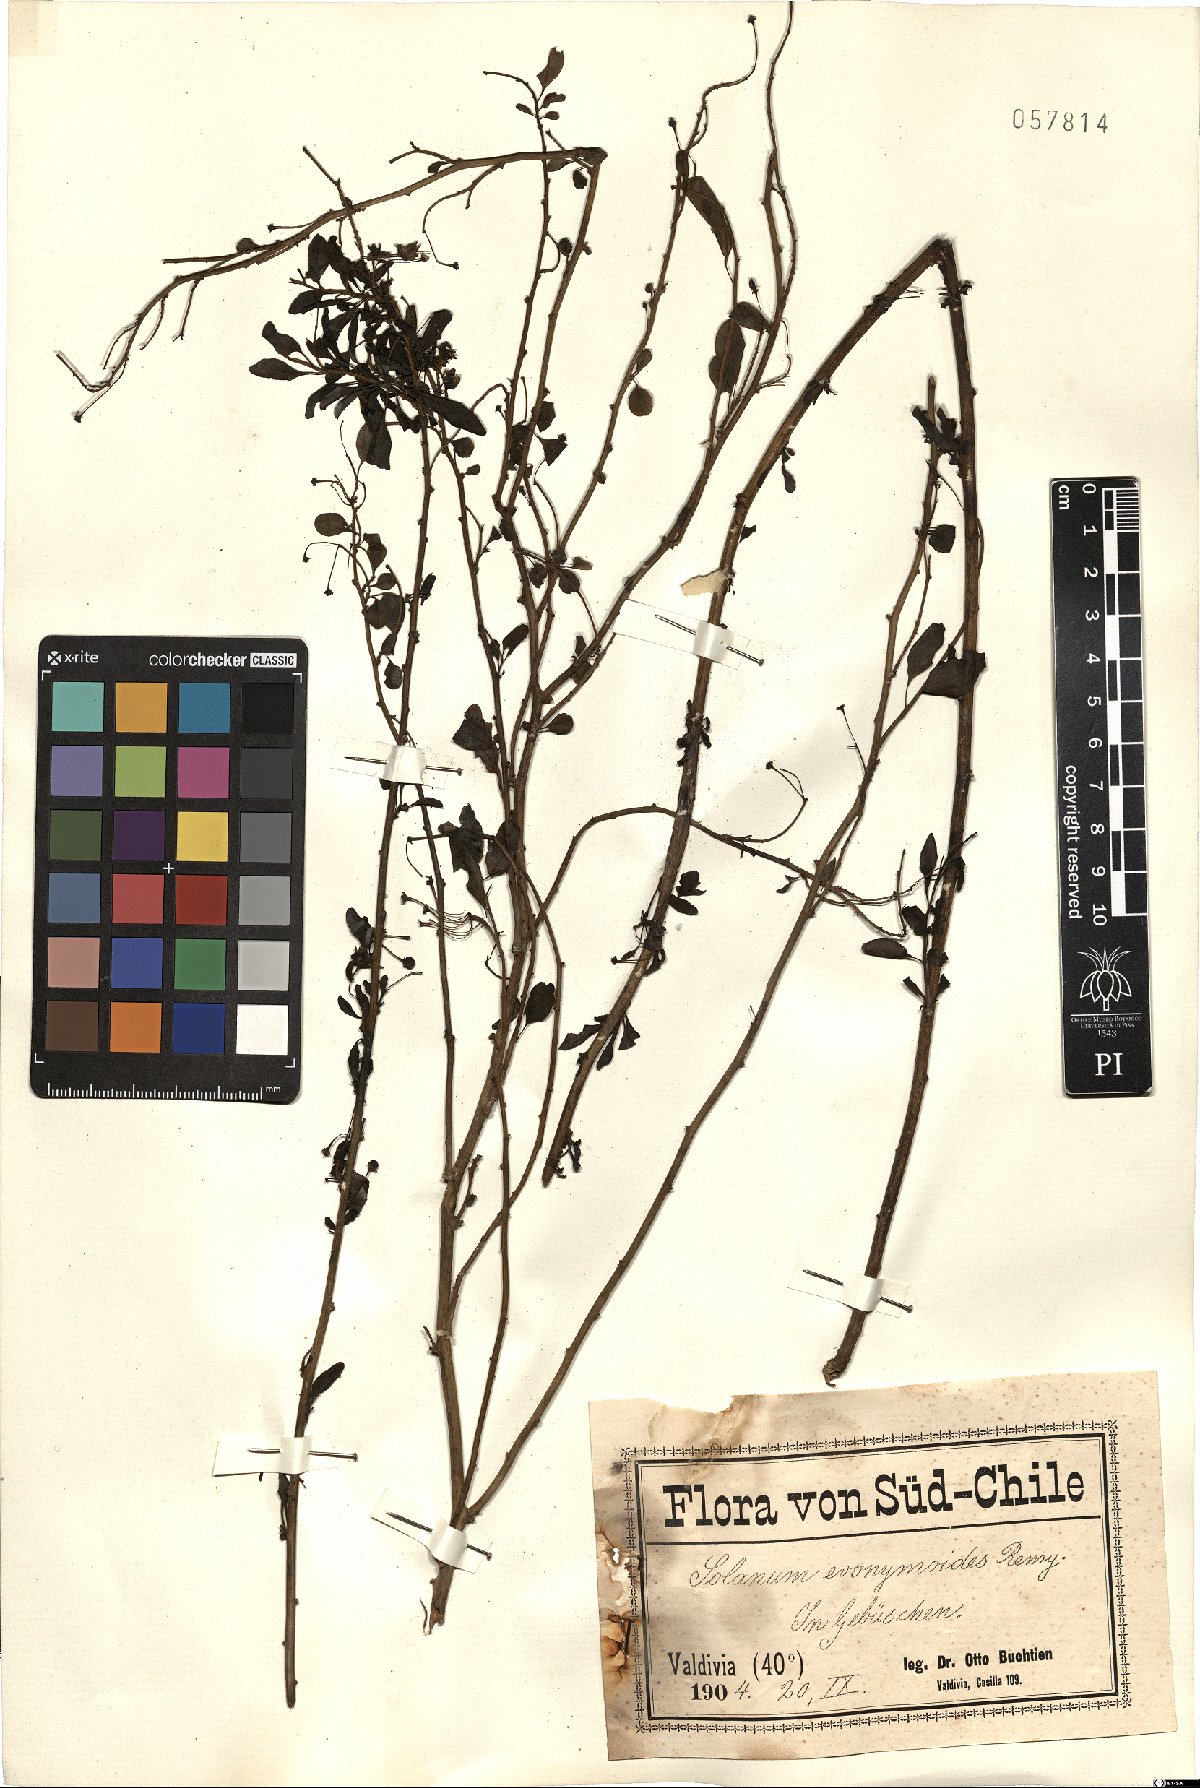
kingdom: Plantae
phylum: Tracheophyta
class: Magnoliopsida
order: Solanales
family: Solanaceae
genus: Solanum
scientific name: Solanum evonymoides
